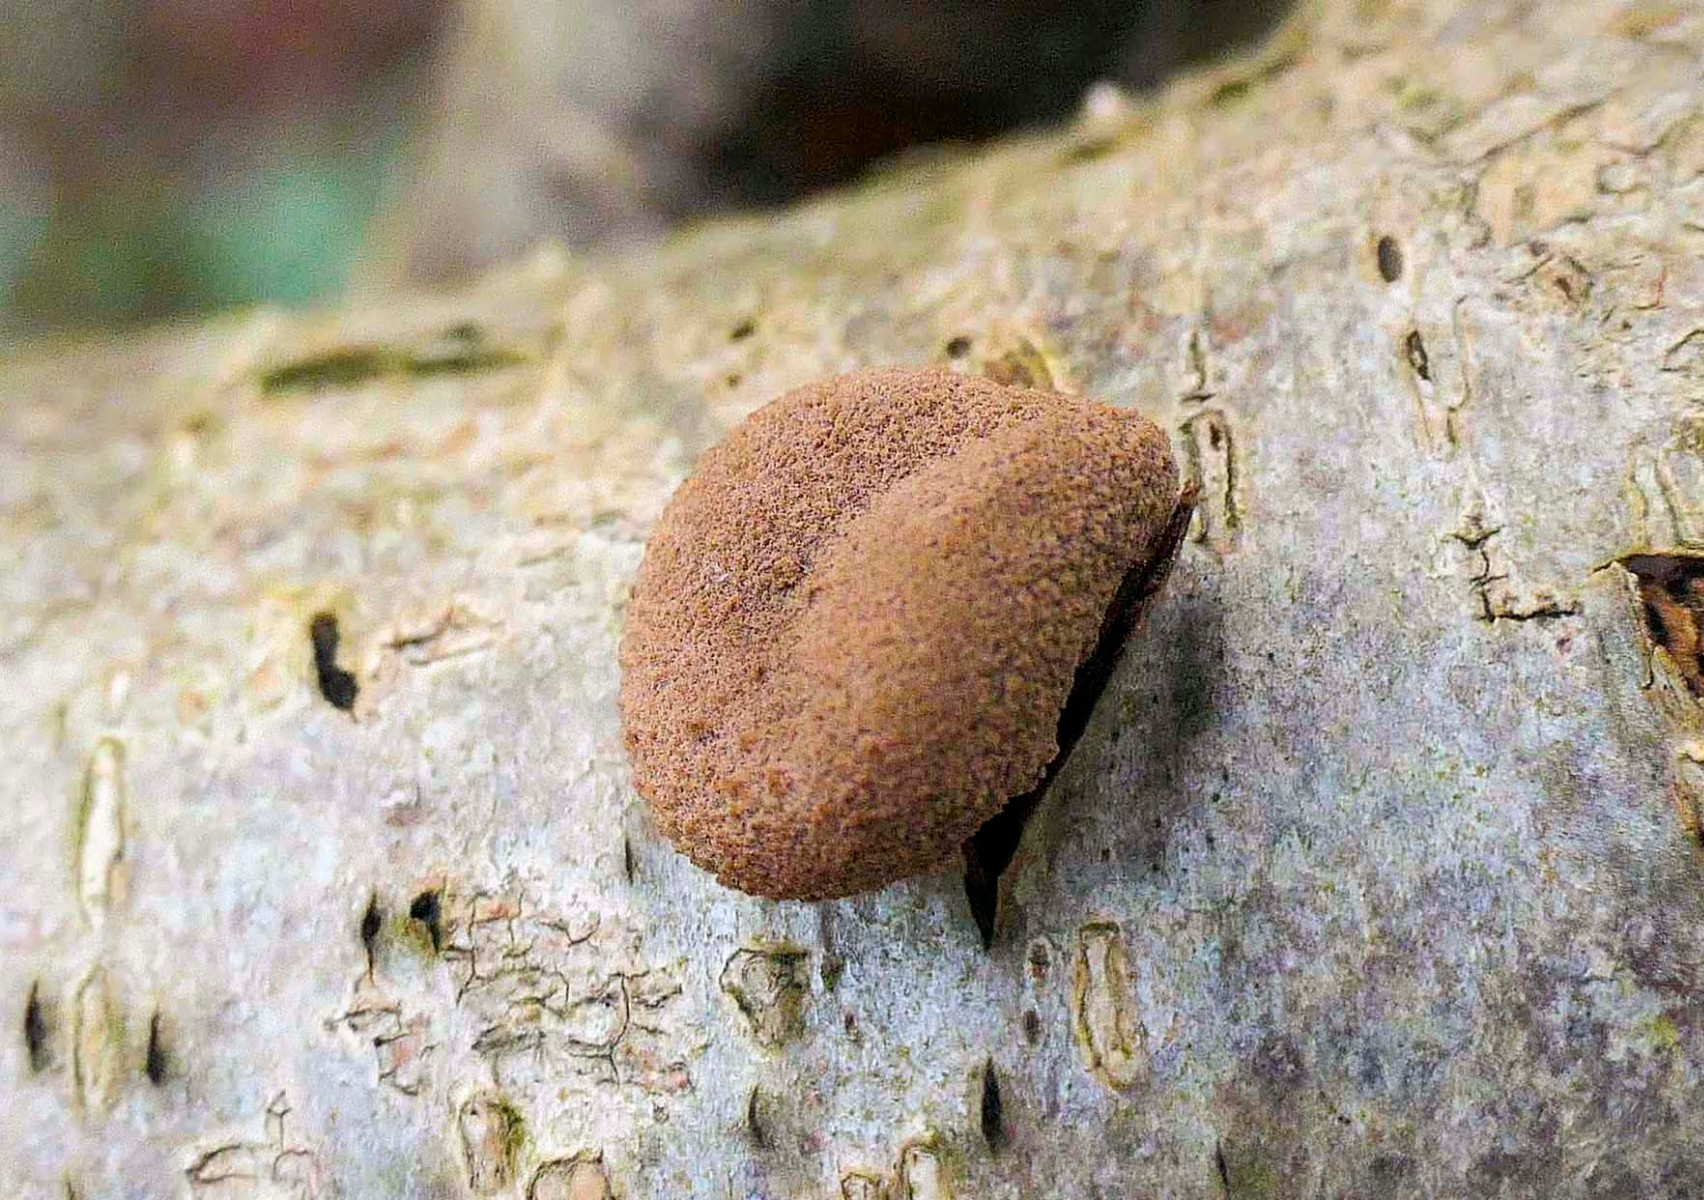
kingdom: Fungi
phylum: Ascomycota
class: Leotiomycetes
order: Helotiales
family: Cenangiaceae
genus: Encoelia
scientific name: Encoelia furfuracea
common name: hassel-læderskive
